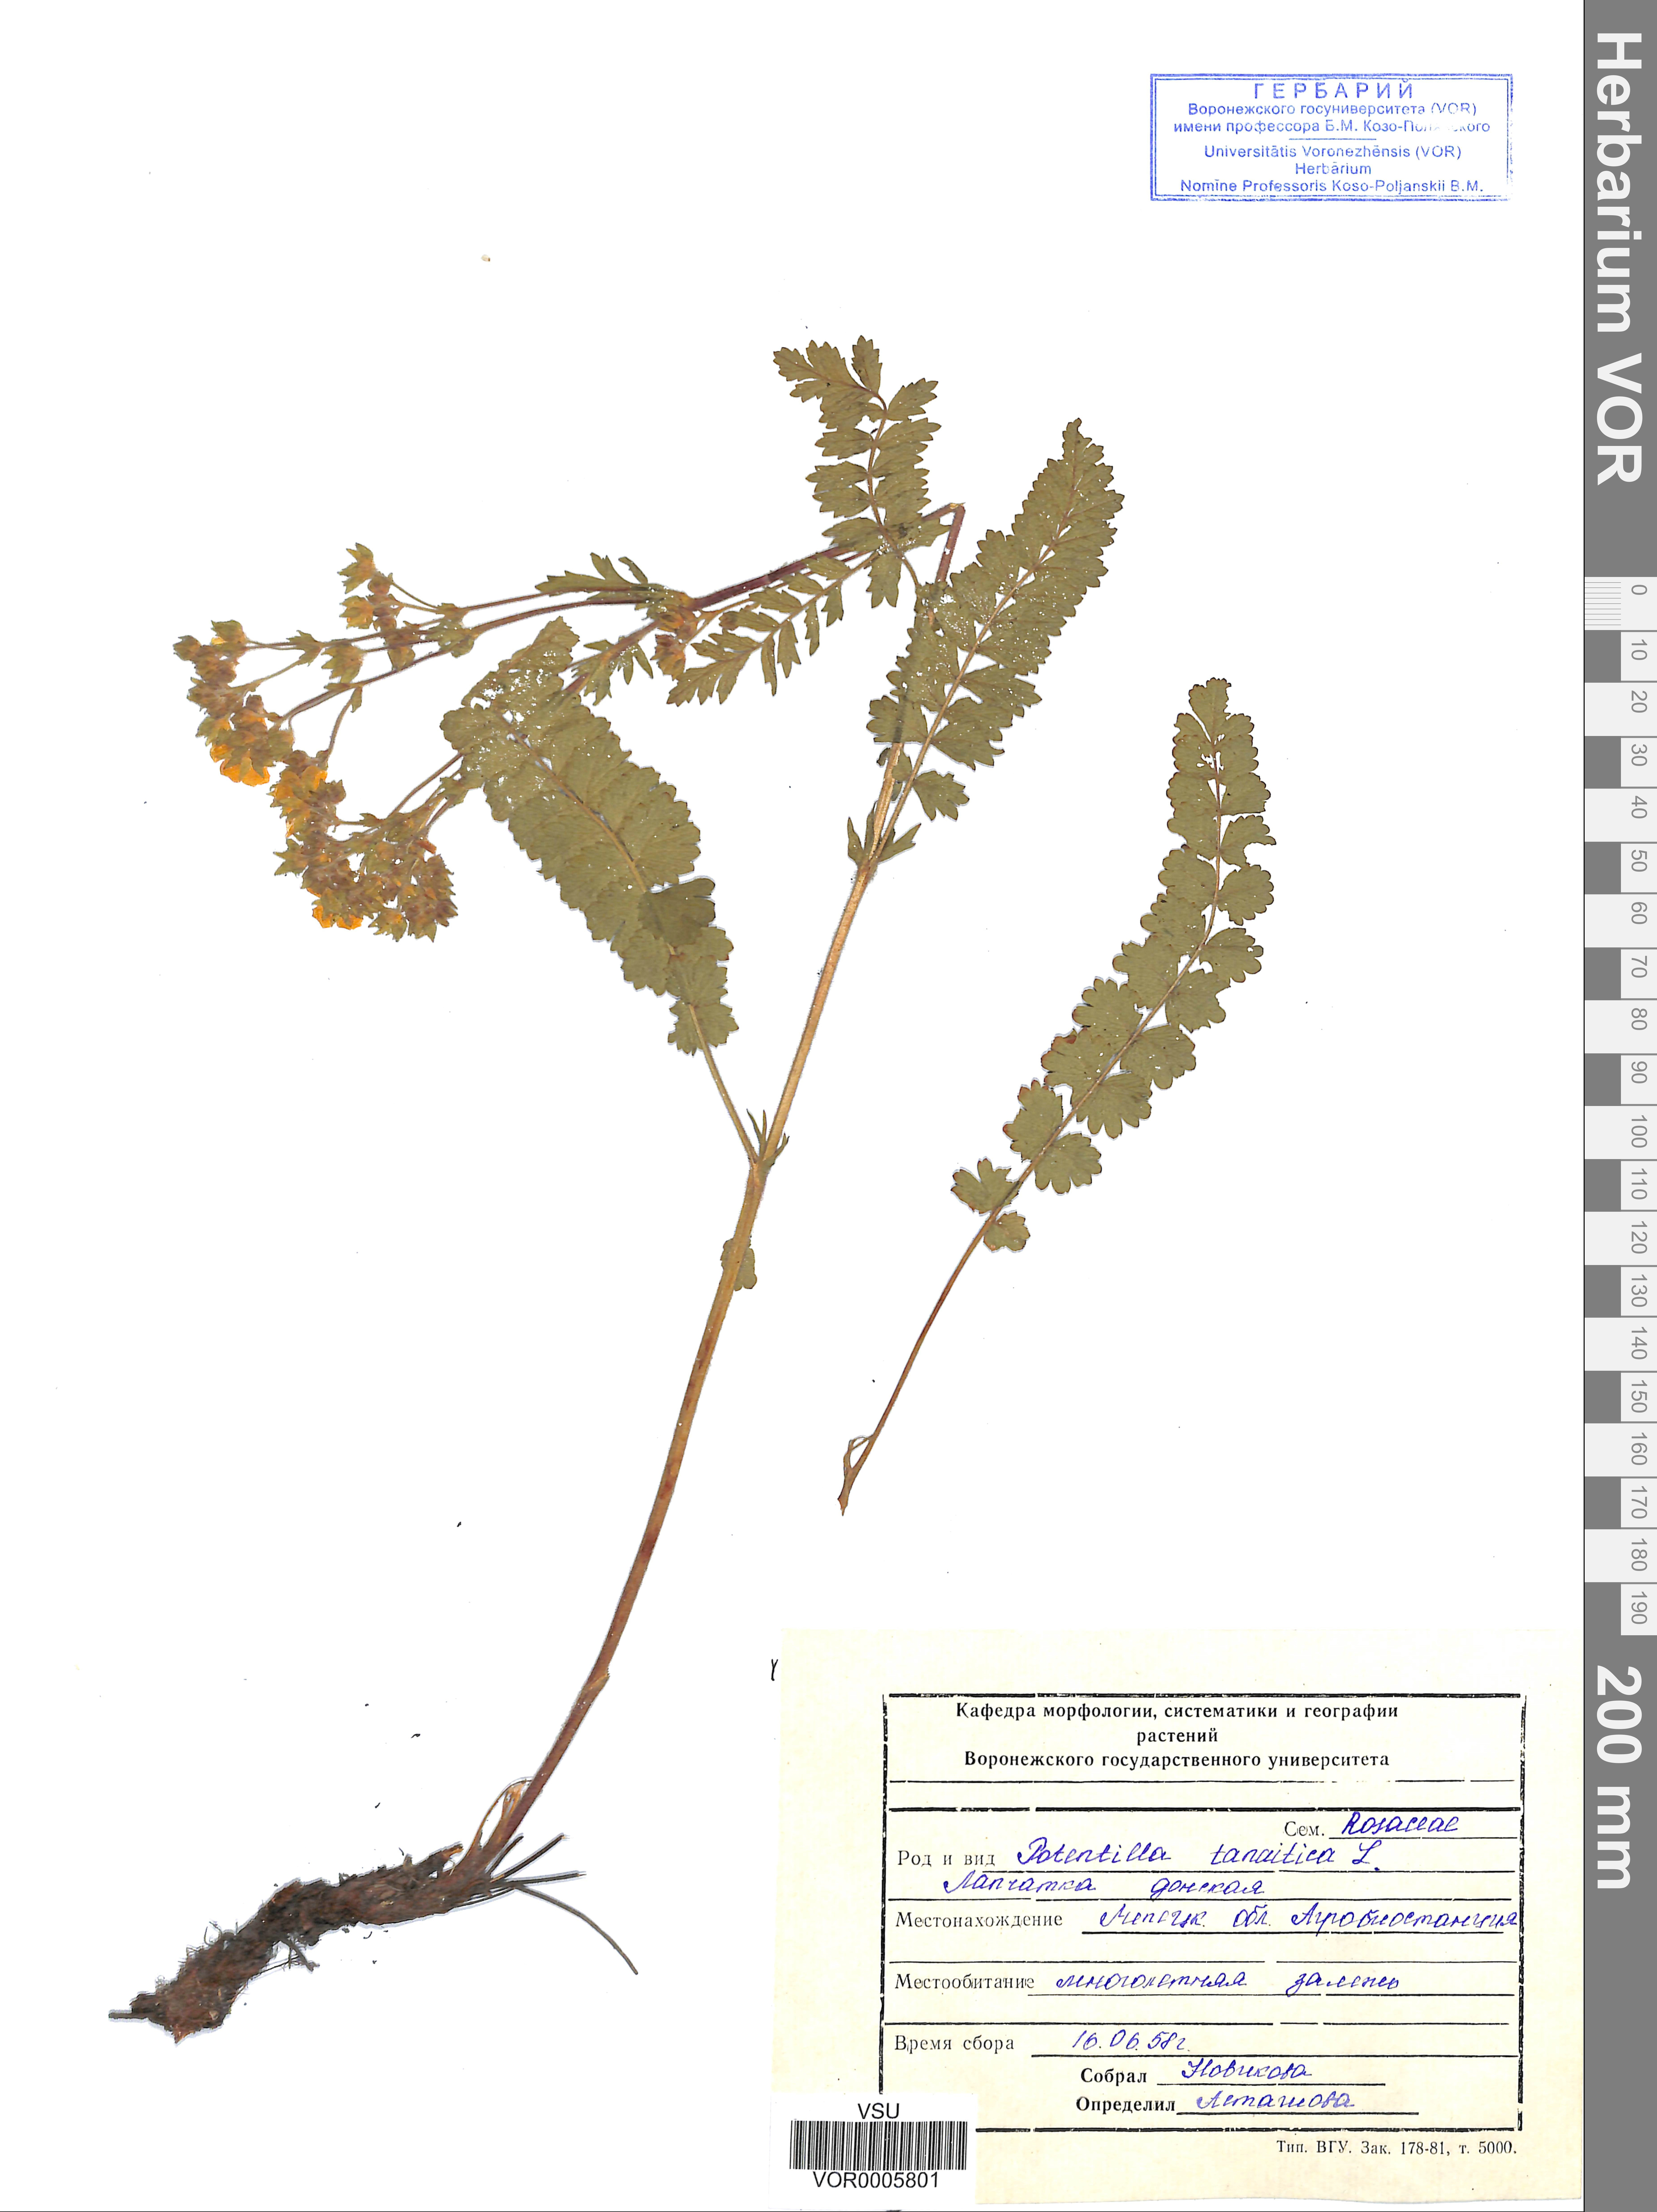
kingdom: Plantae
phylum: Tracheophyta
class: Magnoliopsida
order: Rosales
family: Rosaceae
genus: Potentilla
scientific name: Potentilla tanaitica
